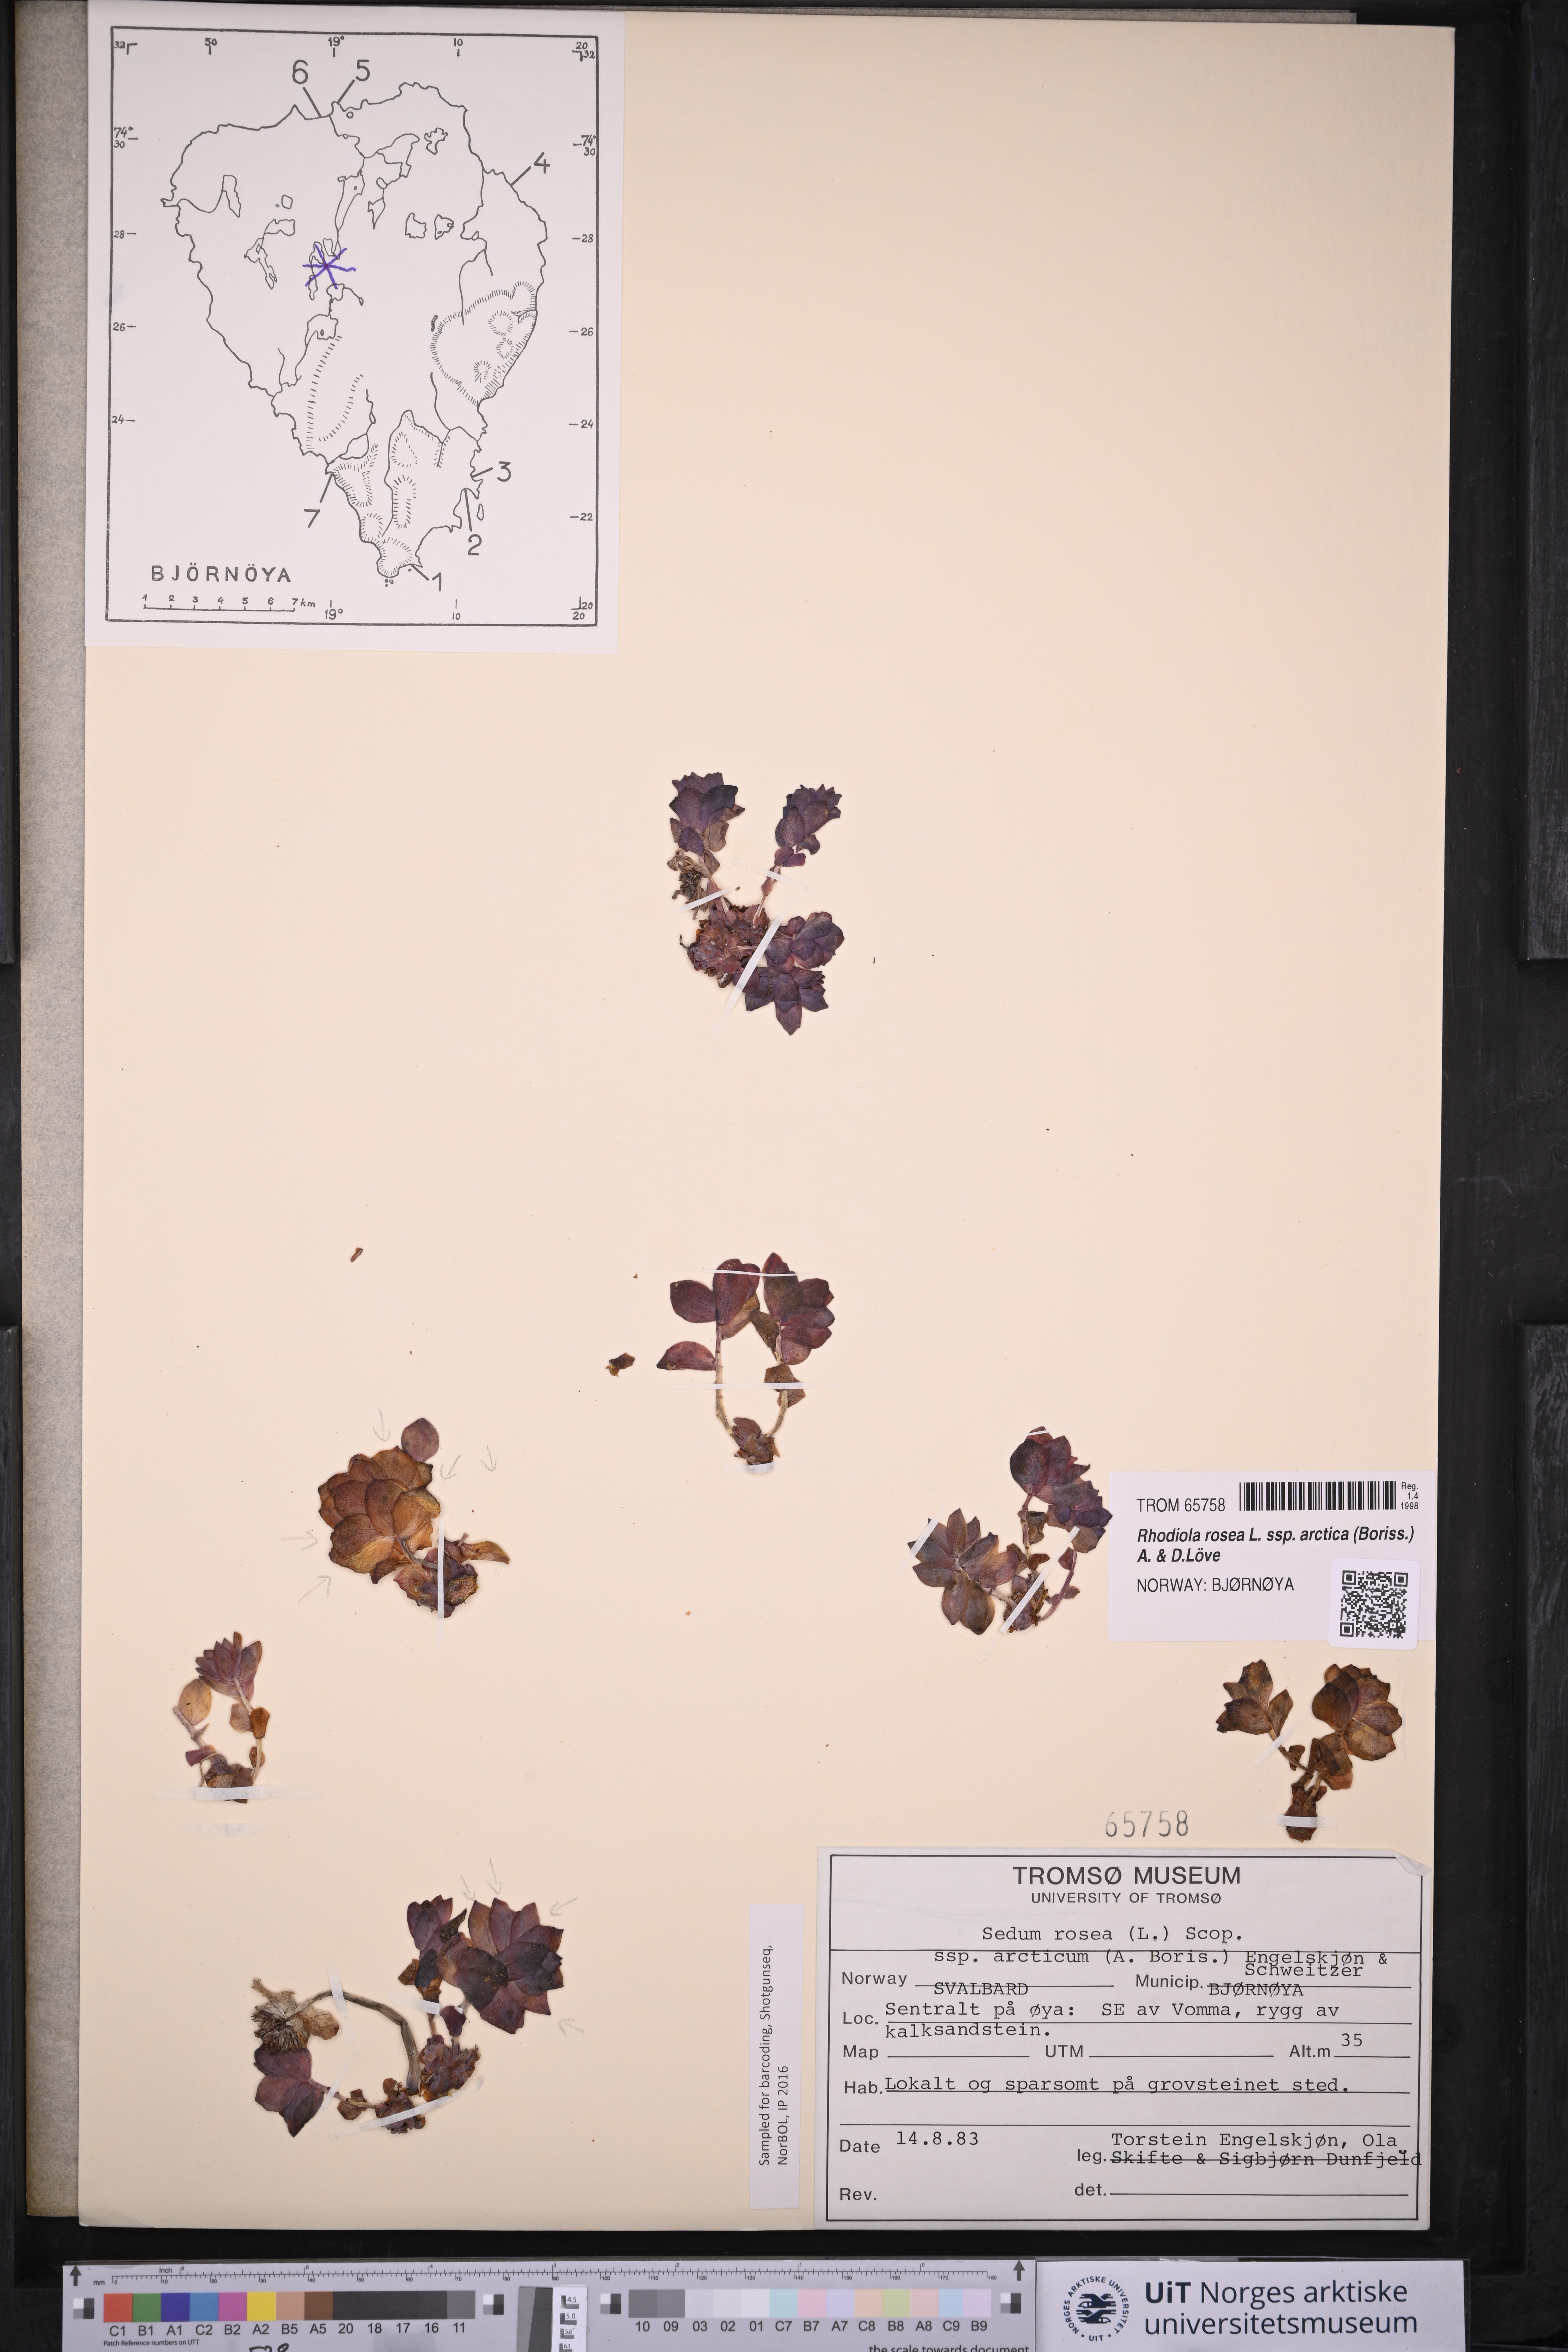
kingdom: Plantae
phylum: Tracheophyta
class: Magnoliopsida
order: Saxifragales
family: Crassulaceae
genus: Rhodiola
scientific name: Rhodiola rosea
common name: Roseroot
